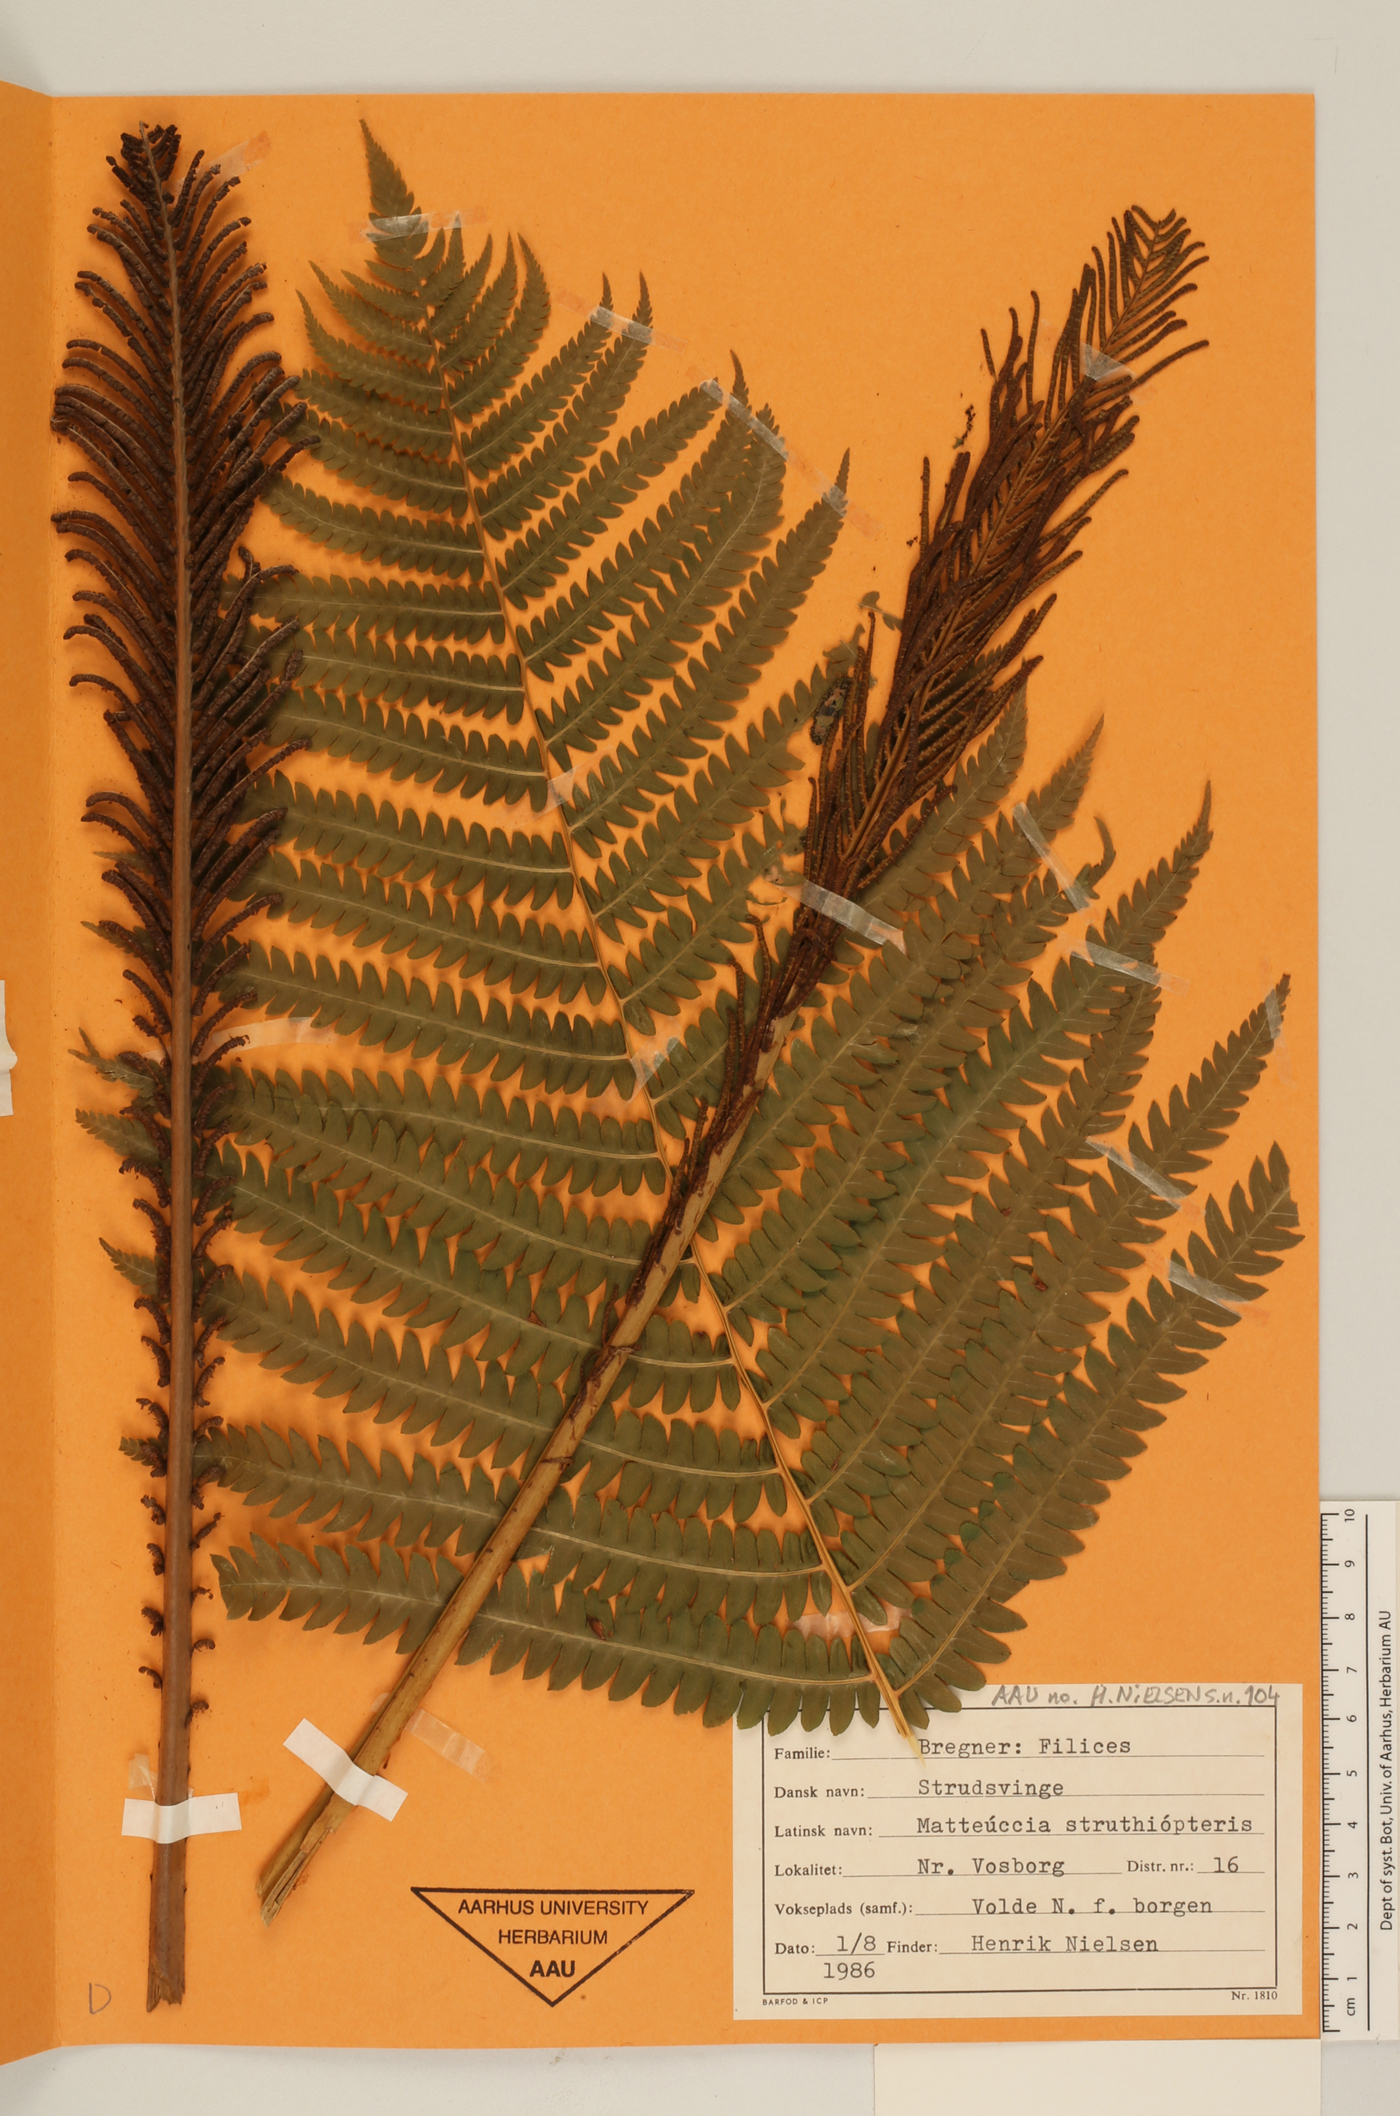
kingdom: Plantae
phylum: Tracheophyta
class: Polypodiopsida
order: Polypodiales
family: Onocleaceae
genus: Matteuccia
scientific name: Matteuccia struthiopteris
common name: Ostrich fern
